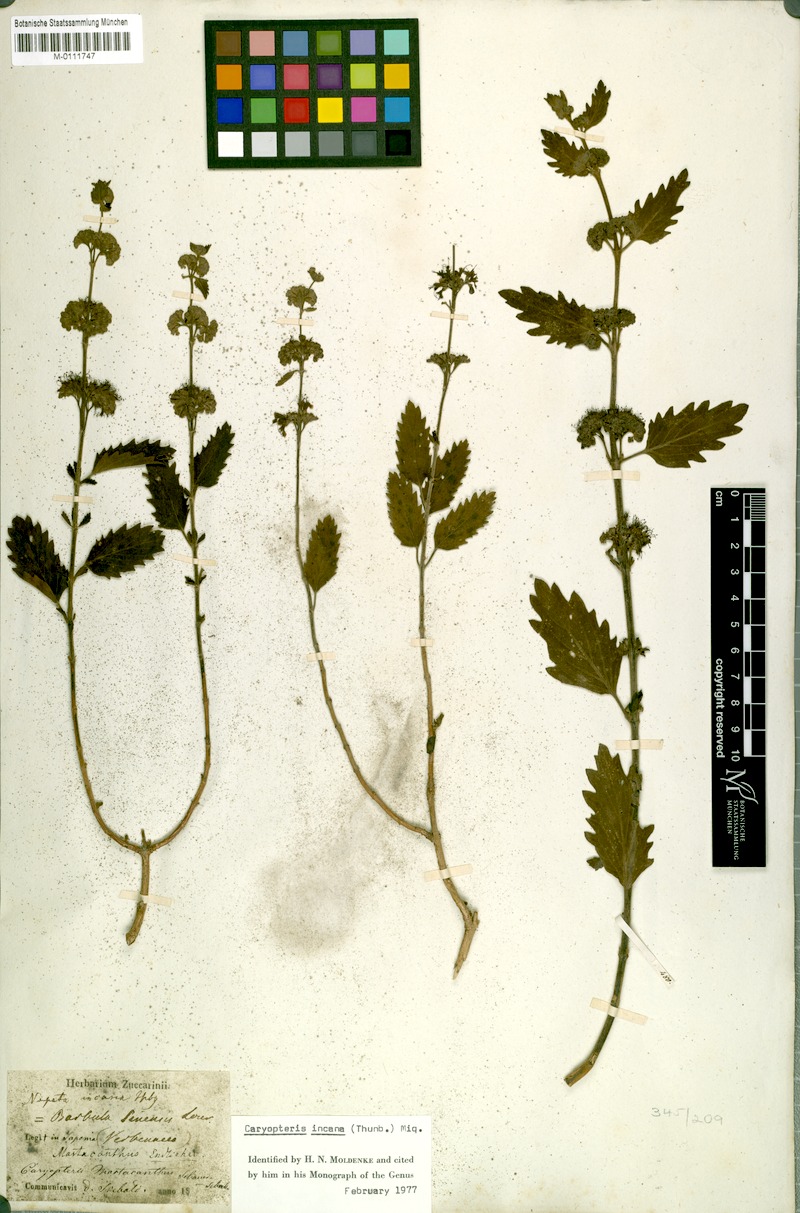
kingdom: Plantae
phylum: Tracheophyta
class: Magnoliopsida
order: Lamiales
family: Lamiaceae
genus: Caryopteris
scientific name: Caryopteris incana
